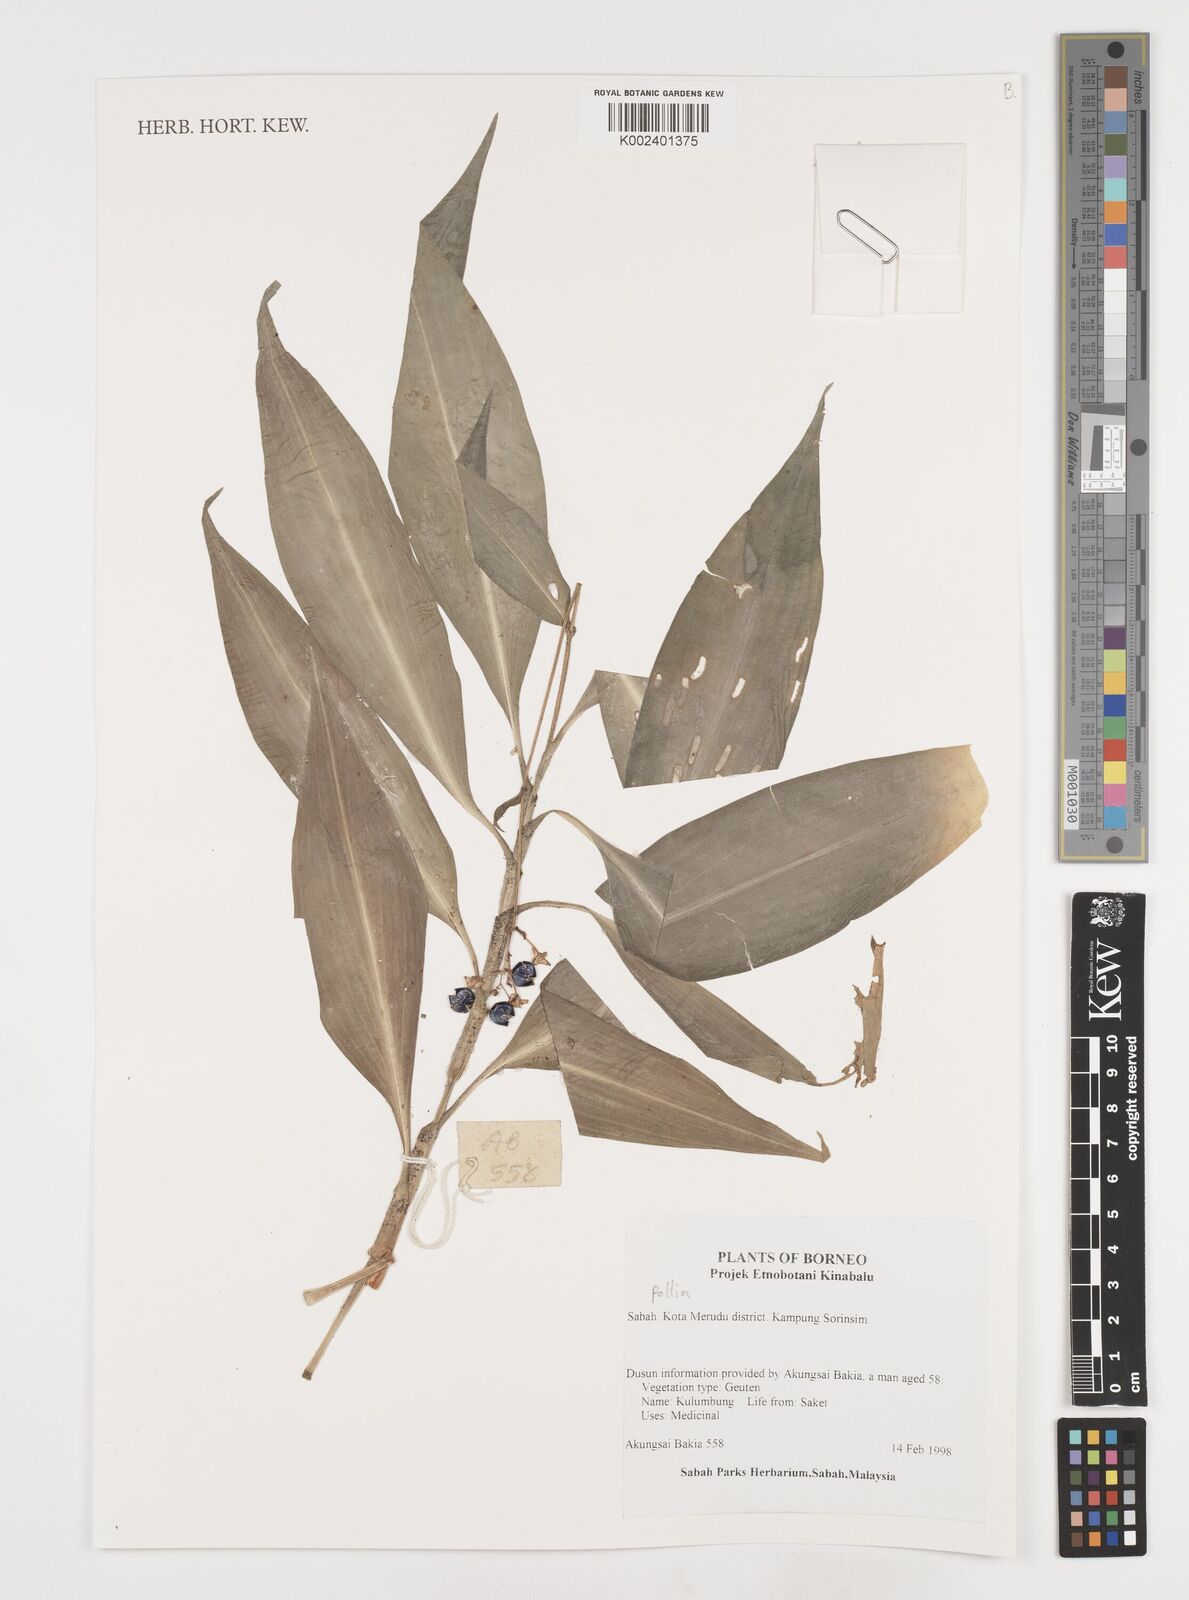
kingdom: Plantae
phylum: Tracheophyta
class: Liliopsida
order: Commelinales
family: Commelinaceae
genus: Pollia
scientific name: Pollia
